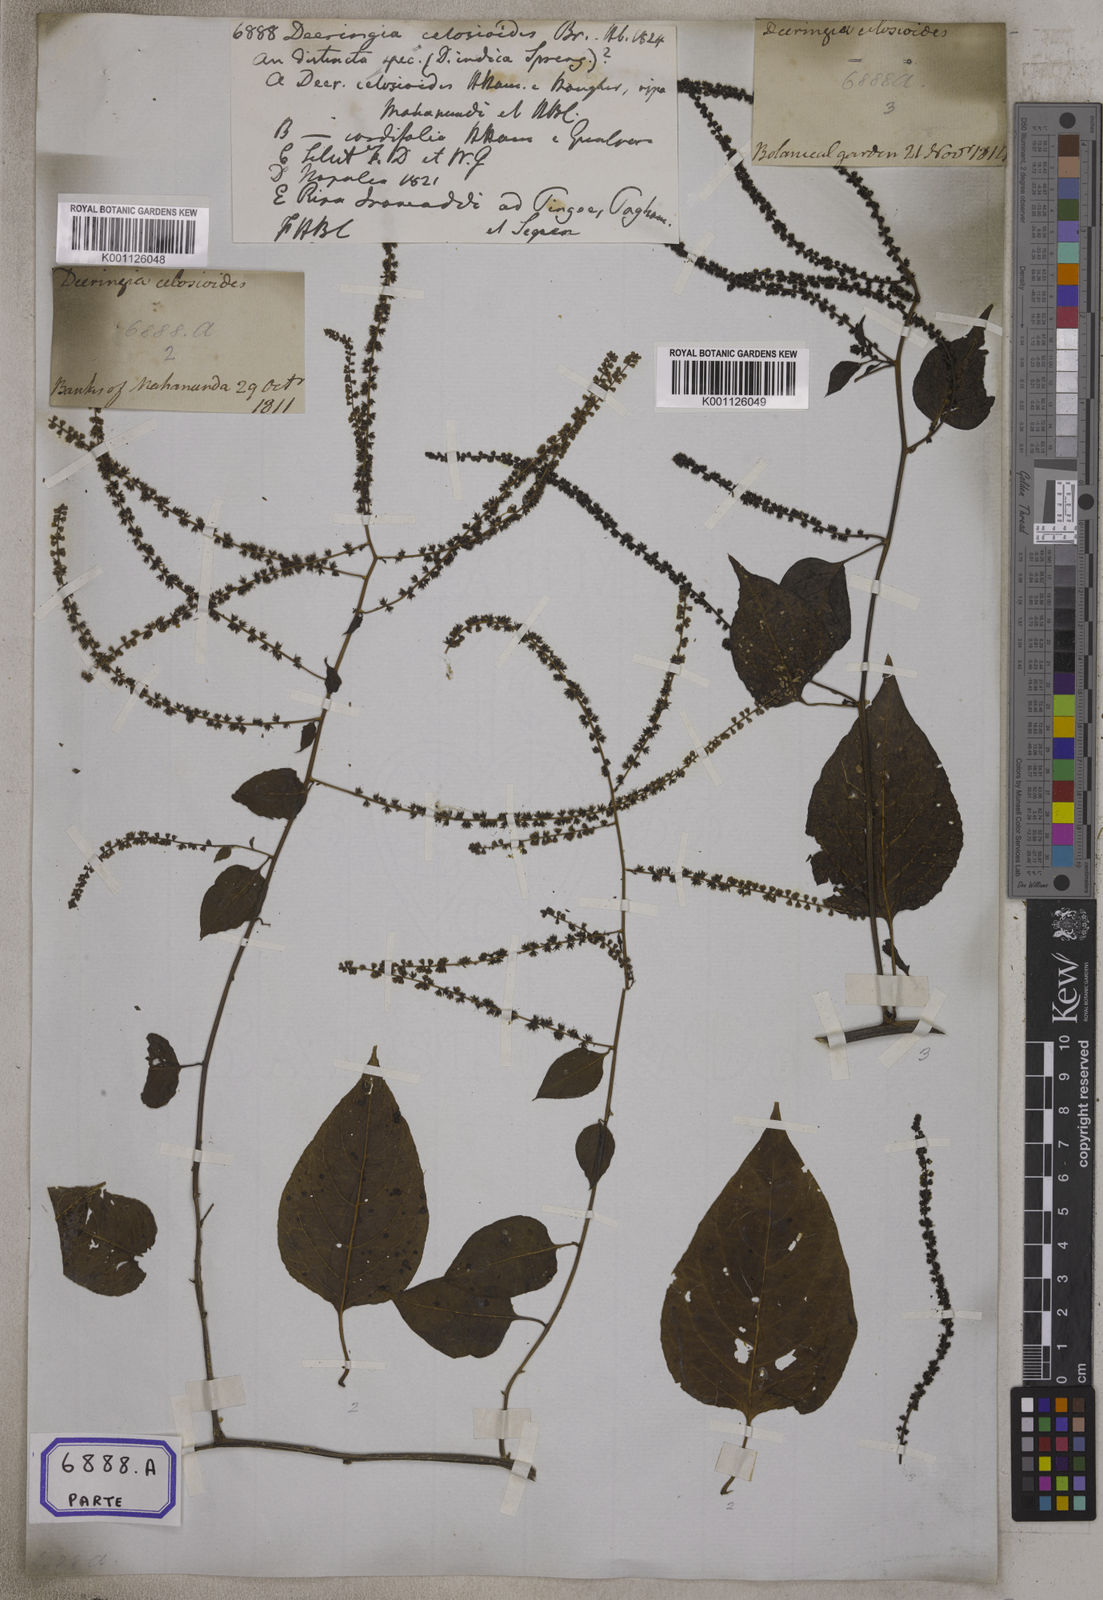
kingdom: Plantae
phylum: Tracheophyta
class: Magnoliopsida
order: Caryophyllales
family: Amaranthaceae
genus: Deeringia
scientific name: Deeringia amaranthoides
